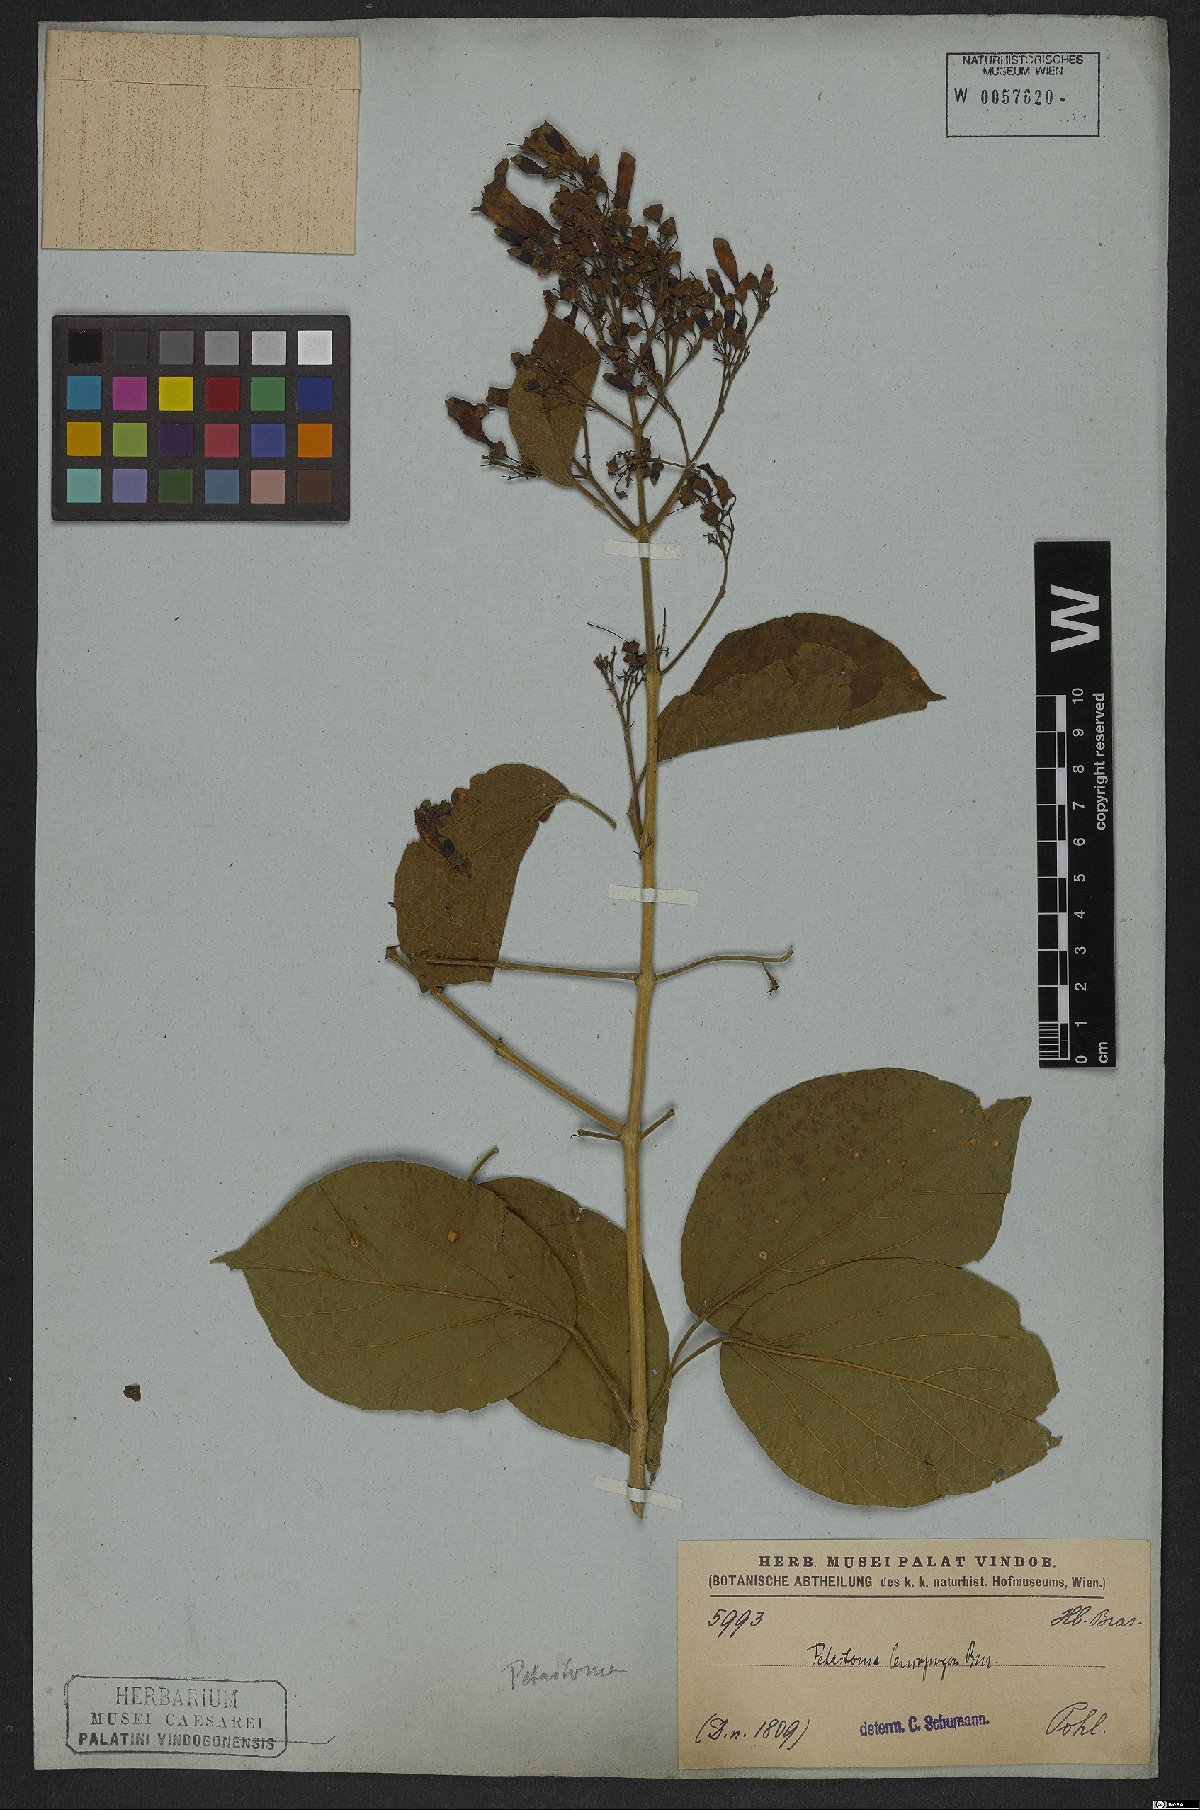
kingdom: Plantae
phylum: Tracheophyta
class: Magnoliopsida
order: Lamiales
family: Bignoniaceae
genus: Fridericia
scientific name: Fridericia leucopogon
